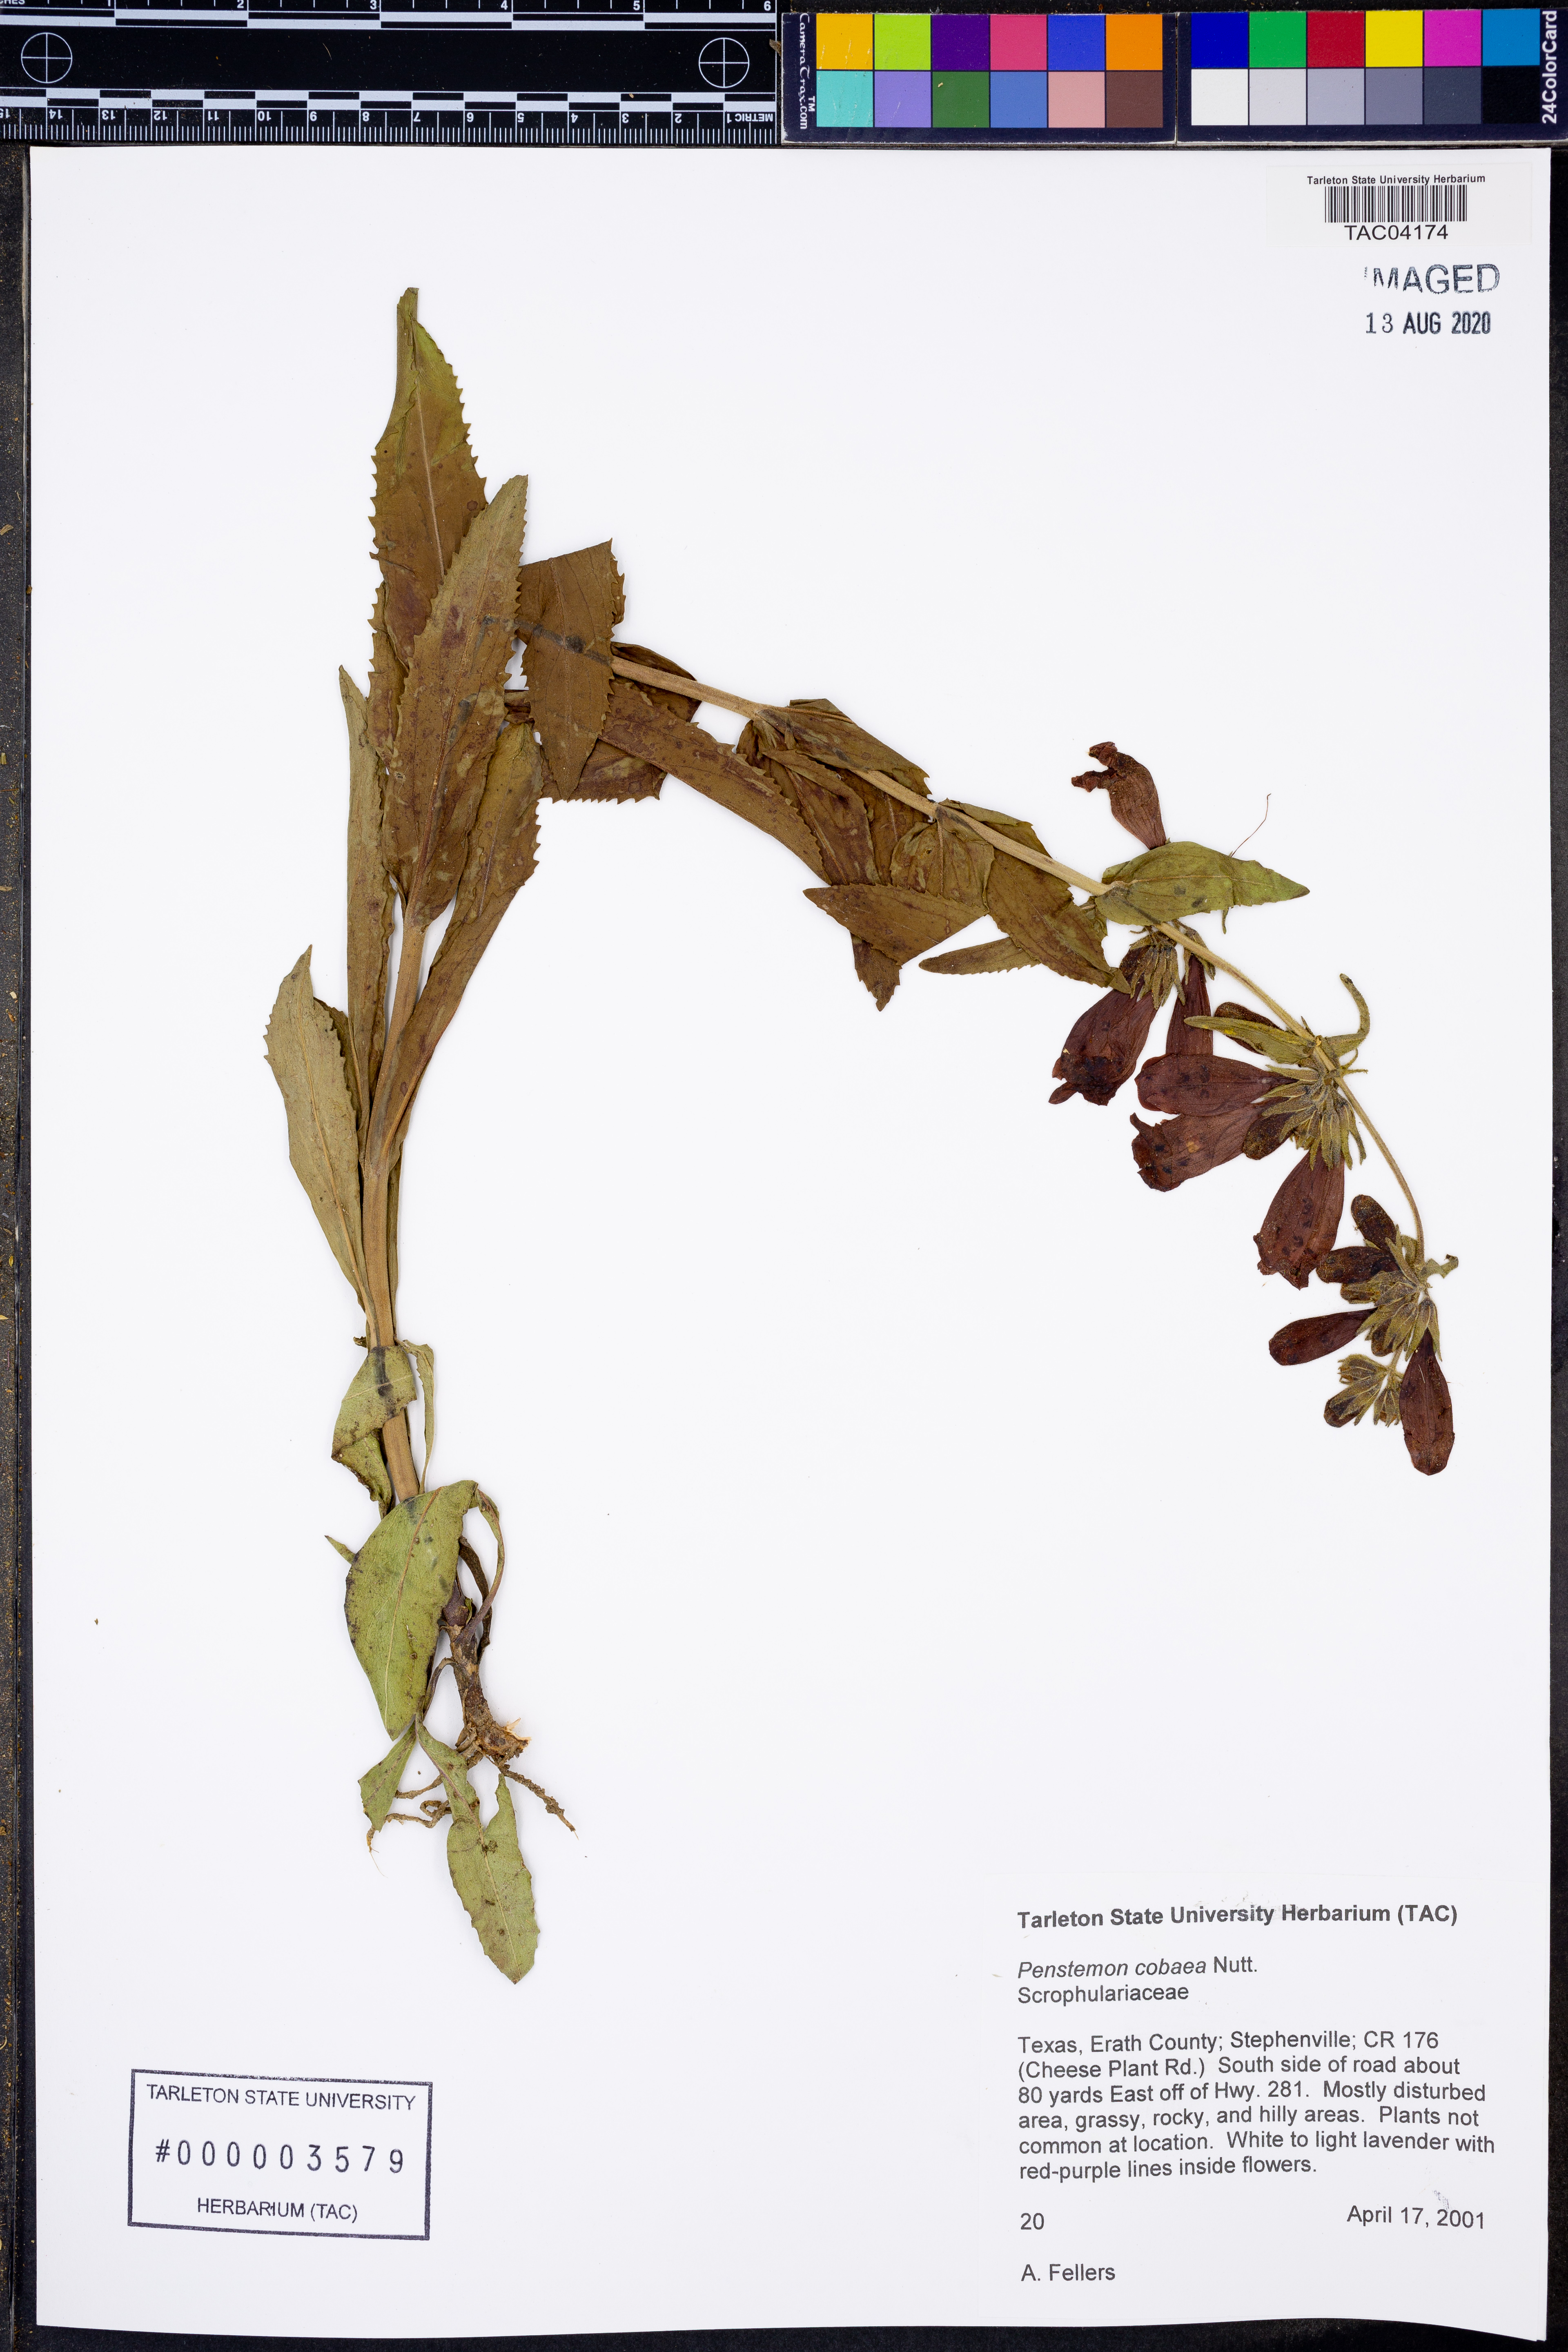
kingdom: Plantae
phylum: Tracheophyta
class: Magnoliopsida
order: Lamiales
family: Plantaginaceae
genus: Penstemon
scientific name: Penstemon cobaea
